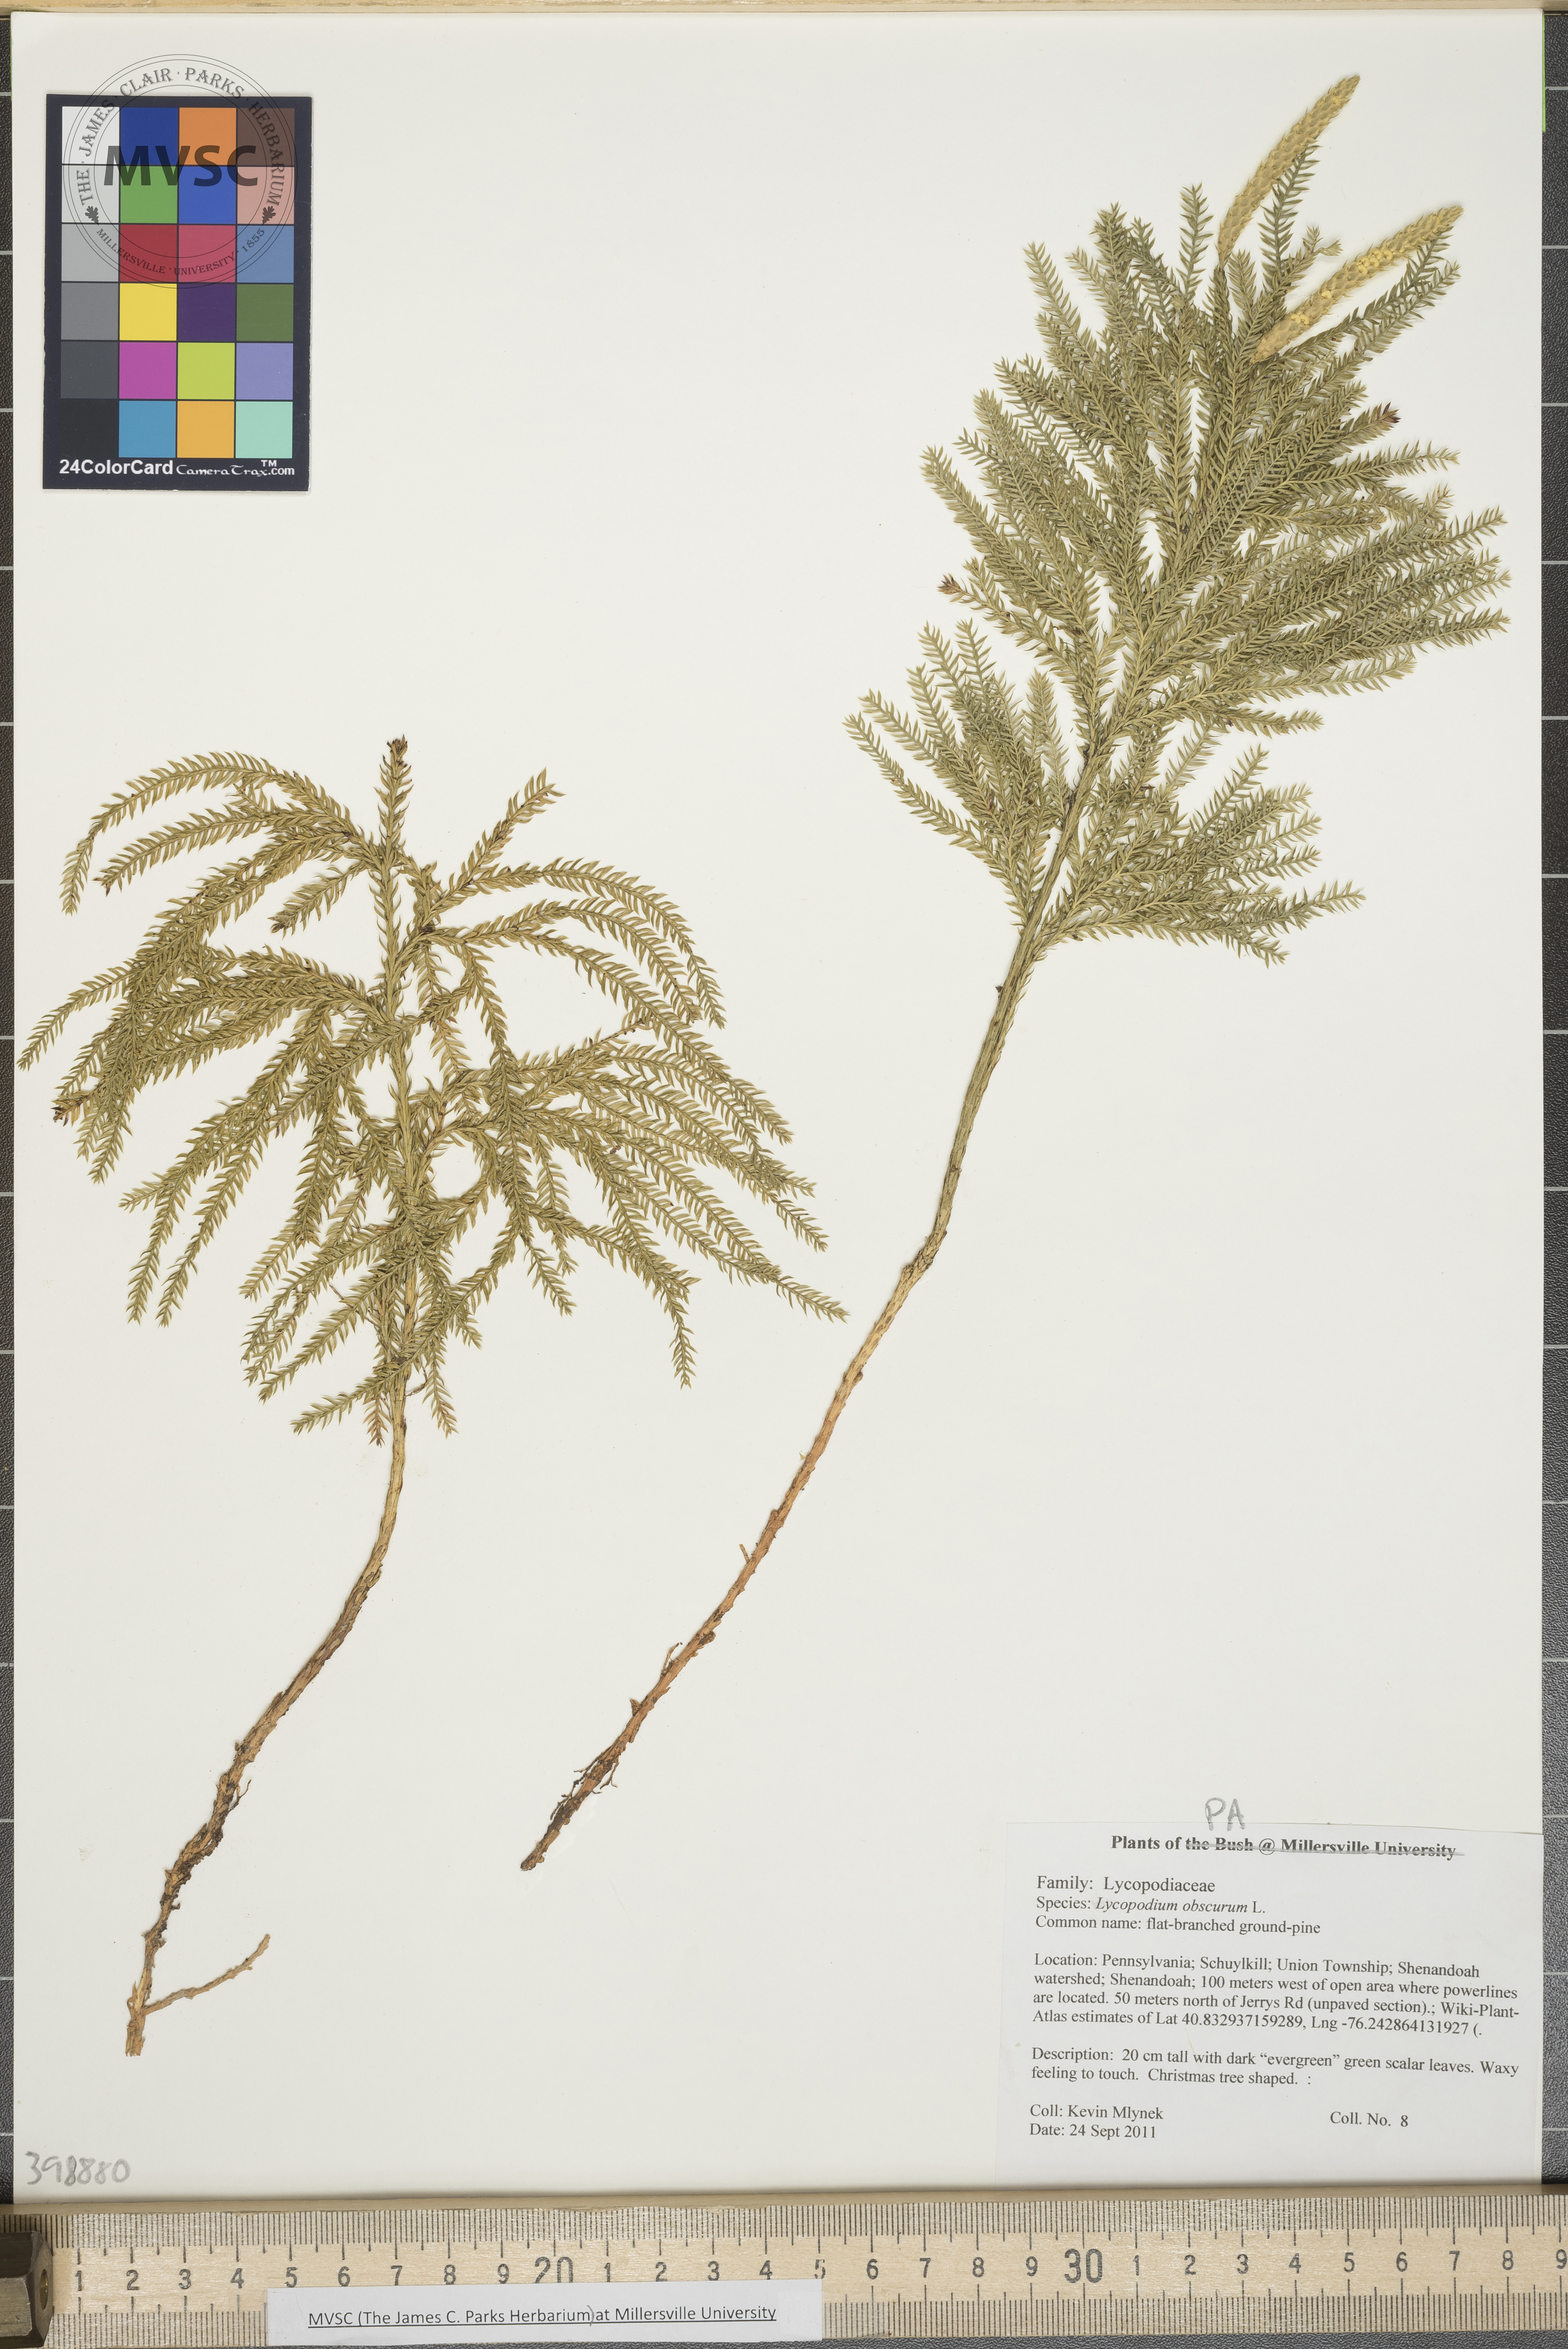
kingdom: Plantae
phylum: Tracheophyta
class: Lycopodiopsida
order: Lycopodiales
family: Lycopodiaceae
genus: Dendrolycopodium
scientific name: Dendrolycopodium obscurum
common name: Flat-branched ground-pine
